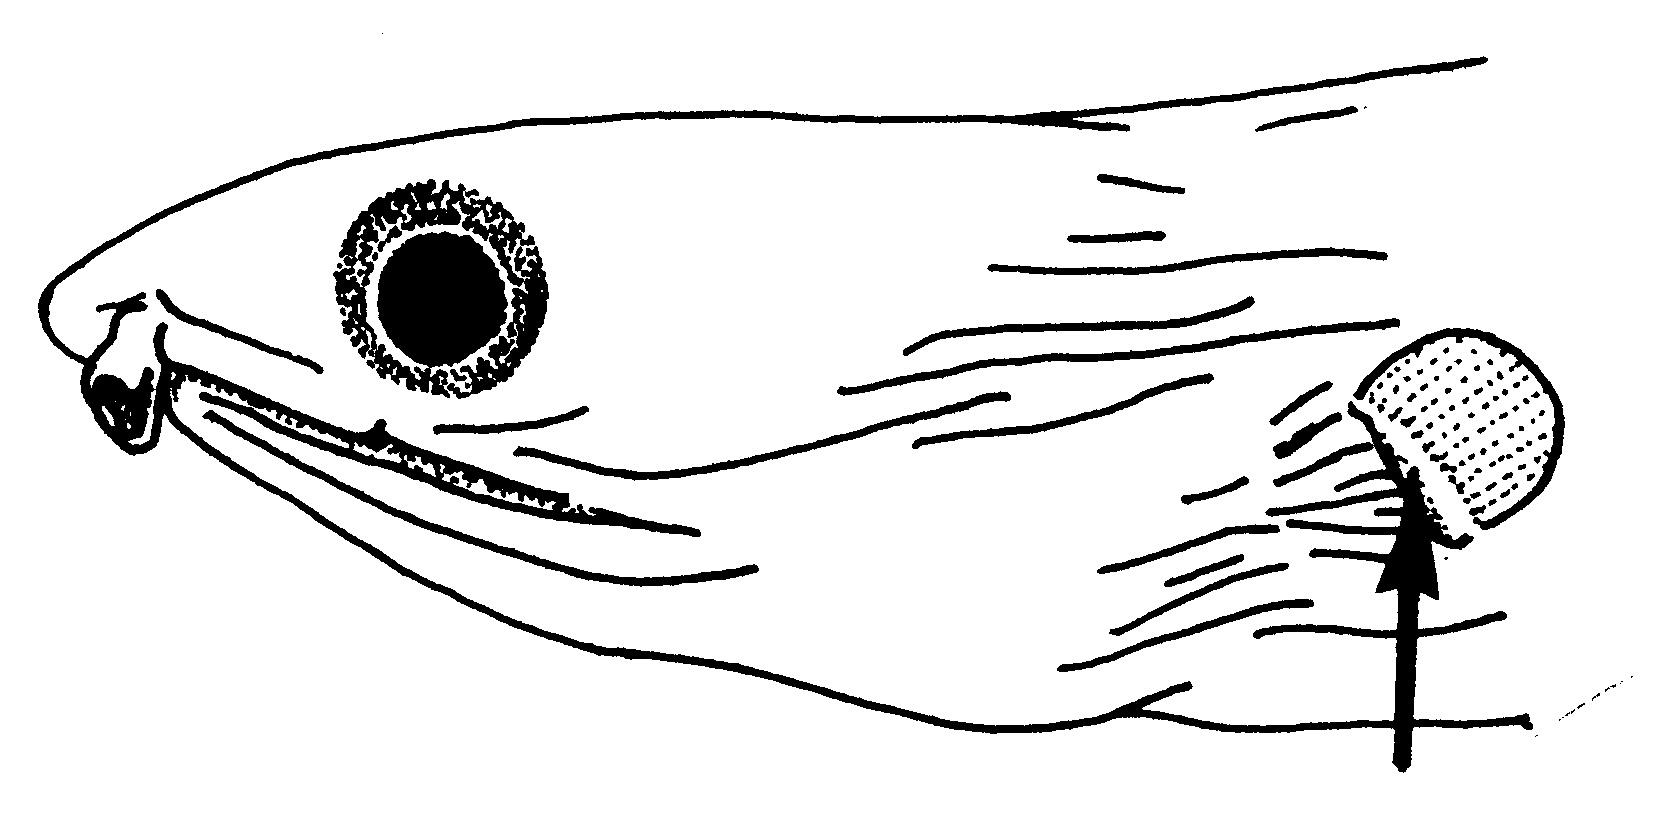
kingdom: Animalia
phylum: Chordata
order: Anguilliformes
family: Ophichthidae
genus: Myrichthys
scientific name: Myrichthys maculosus
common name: Spotted snake eel
